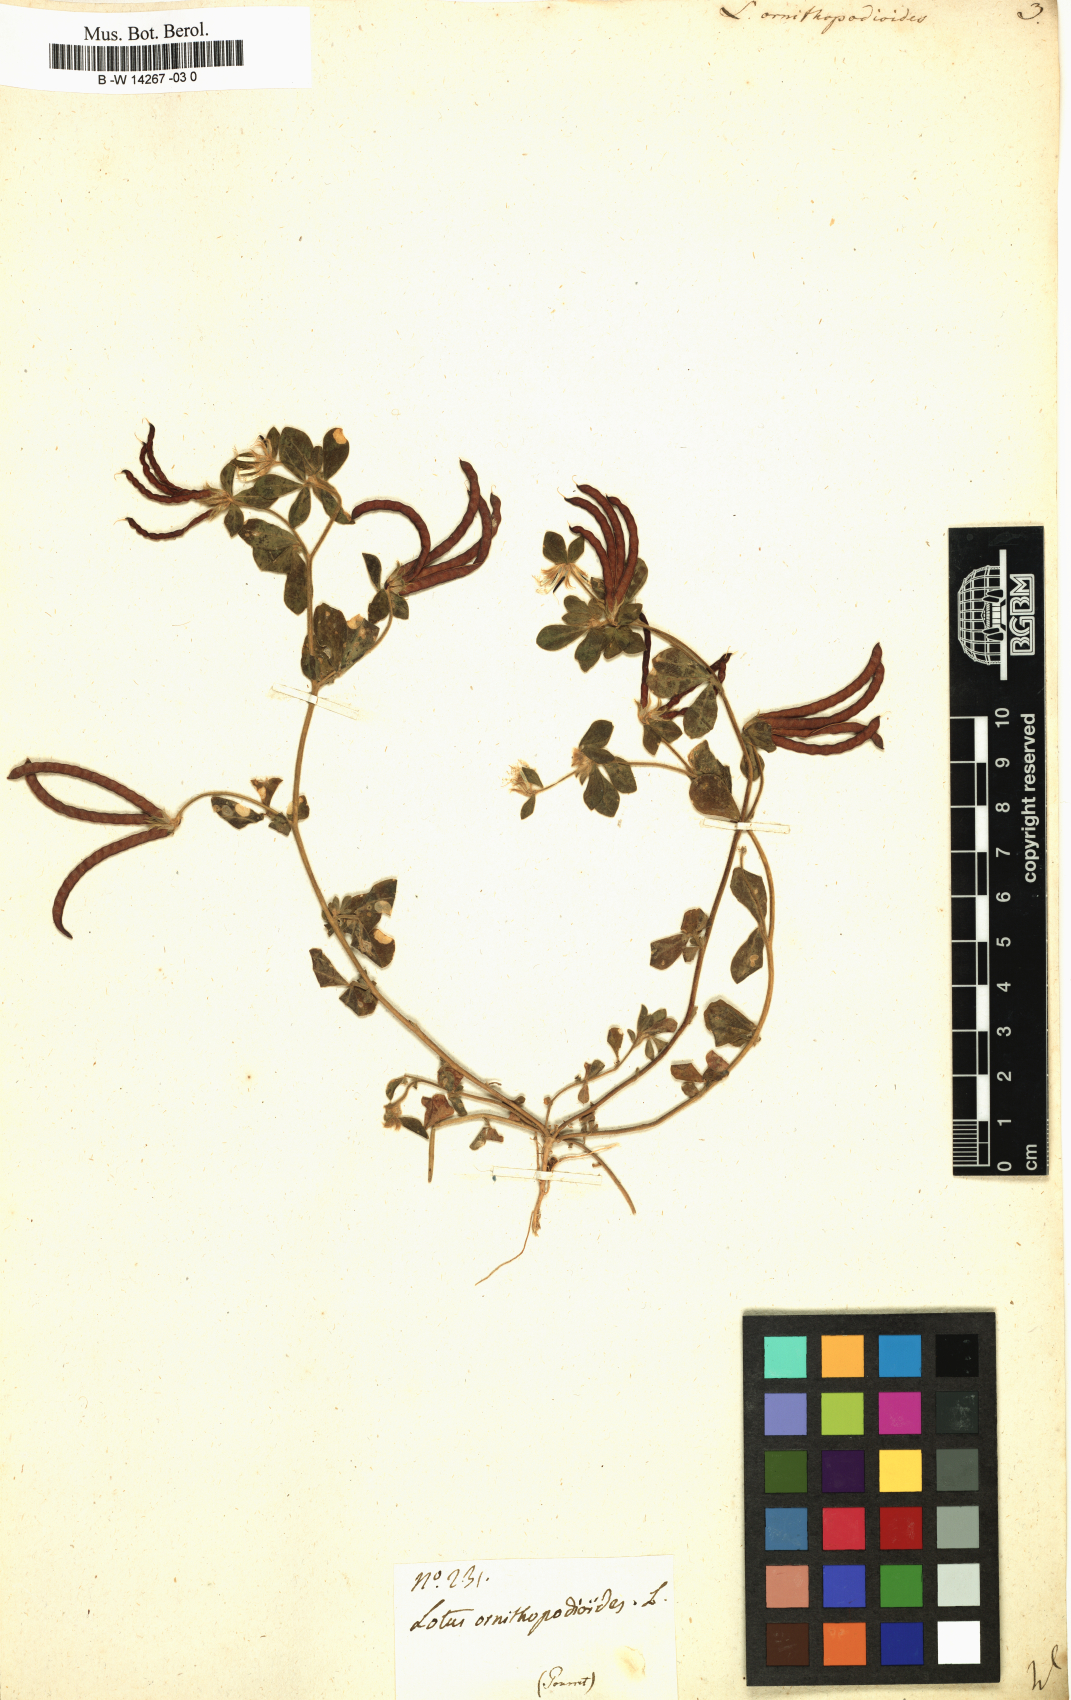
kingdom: Plantae
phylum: Tracheophyta
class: Magnoliopsida
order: Fabales
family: Fabaceae
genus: Lotus
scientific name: Lotus ornithopodioides
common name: Southern bird's-foot trefoil
